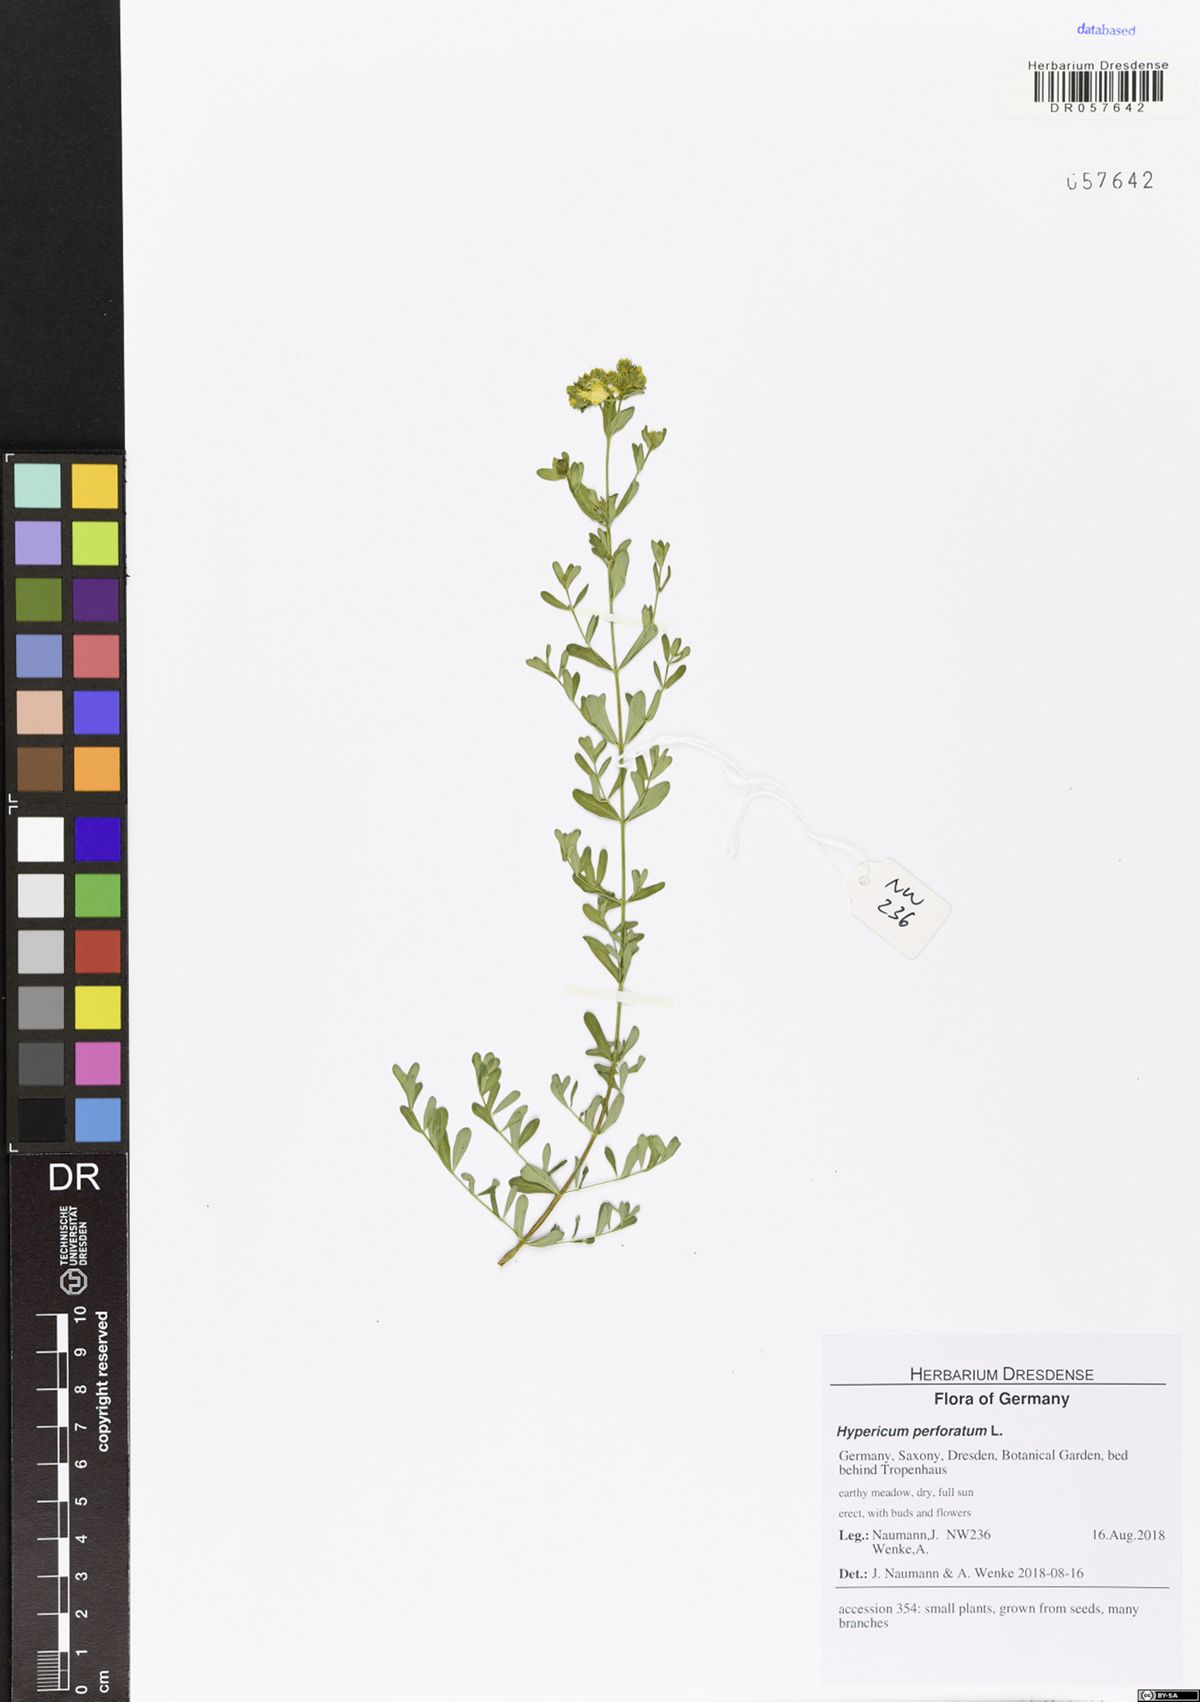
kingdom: Plantae
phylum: Tracheophyta
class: Magnoliopsida
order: Malpighiales
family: Hypericaceae
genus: Hypericum
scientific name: Hypericum perforatum
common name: Common st. johnswort
